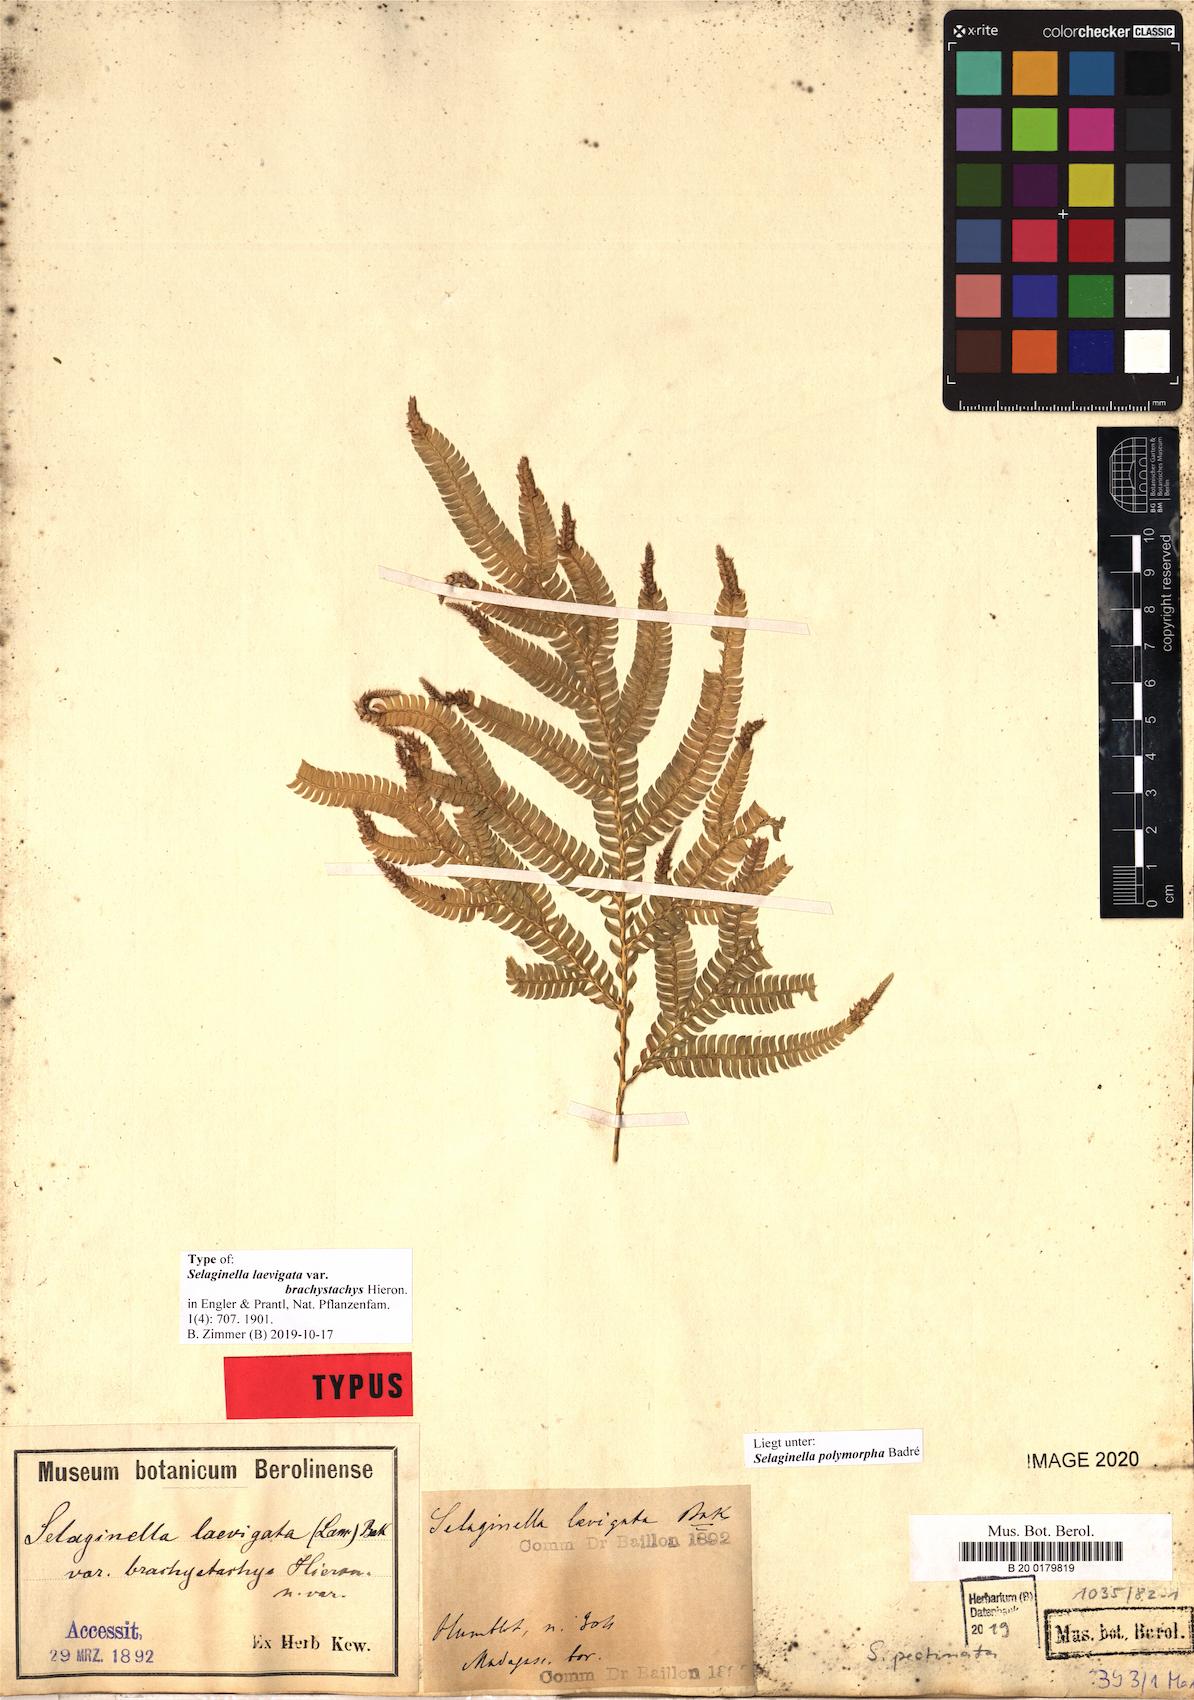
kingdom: Plantae
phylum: Tracheophyta
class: Lycopodiopsida
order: Selaginellales
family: Selaginellaceae
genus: Selaginella
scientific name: Selaginella polymorpha
